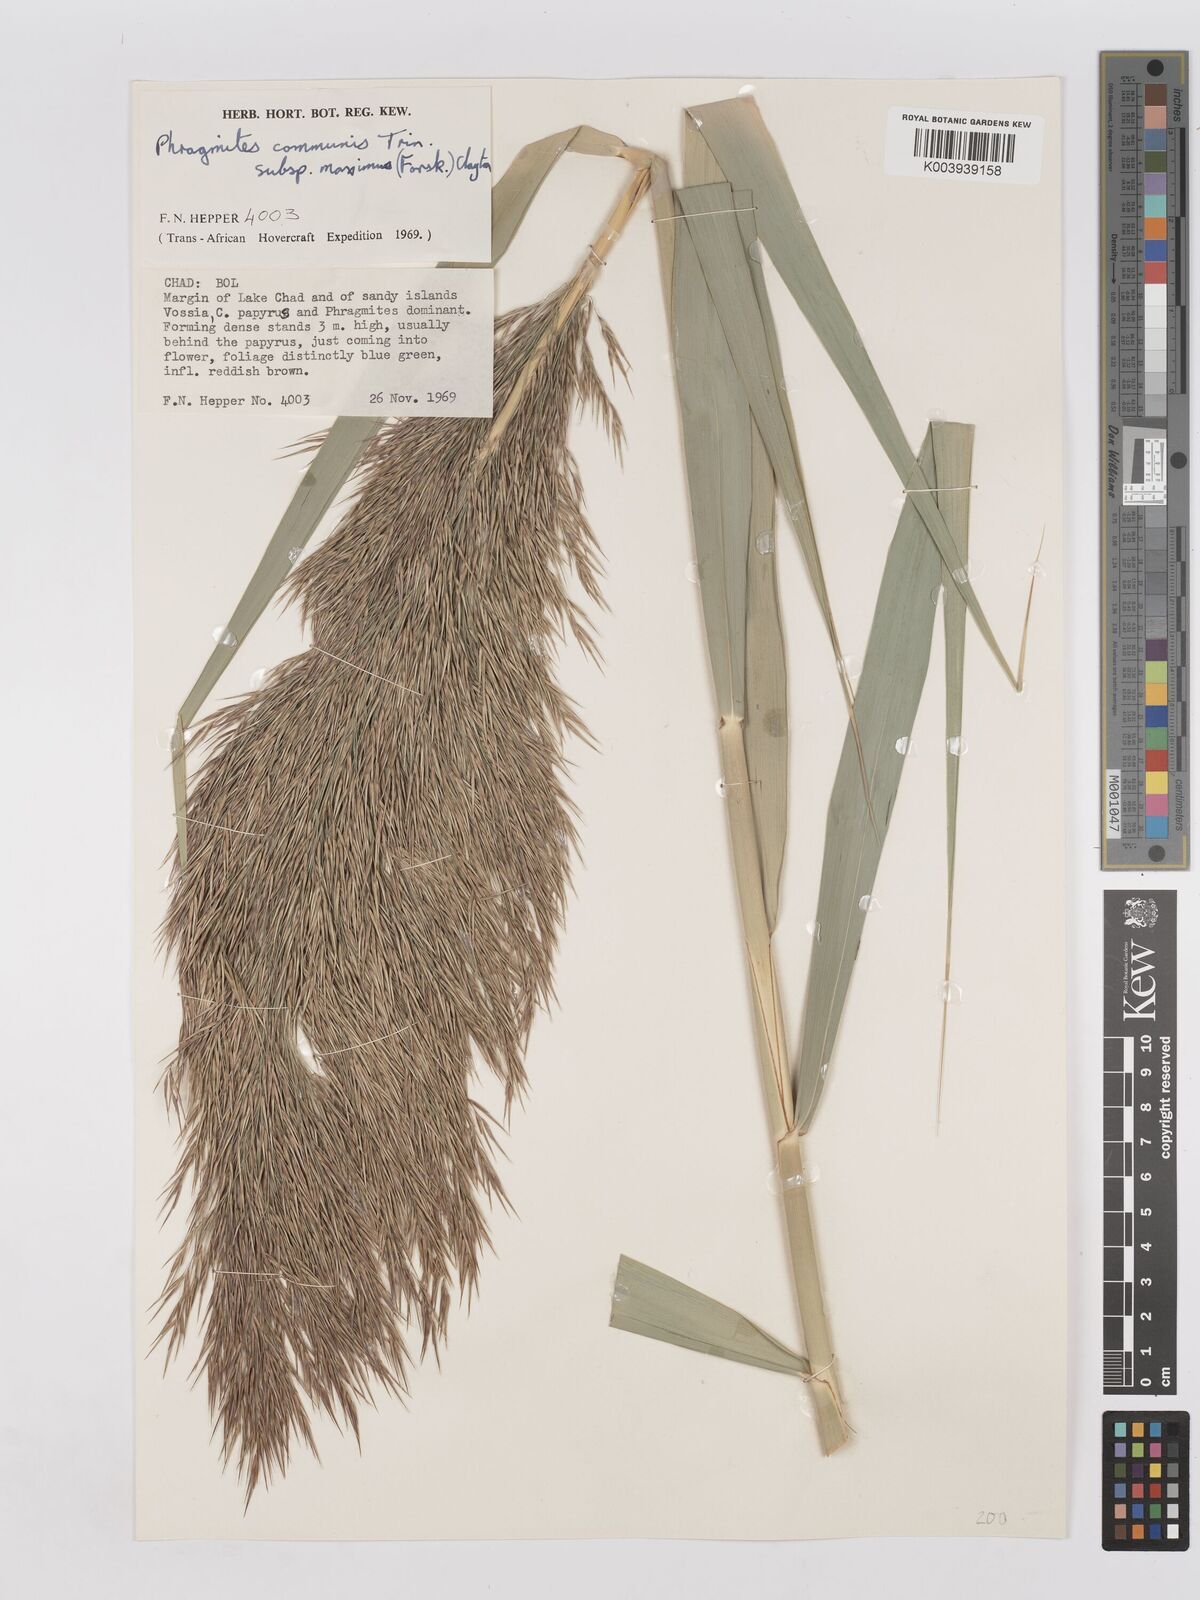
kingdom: Plantae
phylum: Tracheophyta
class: Liliopsida
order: Poales
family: Poaceae
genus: Phragmites
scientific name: Phragmites australis
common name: Common reed
